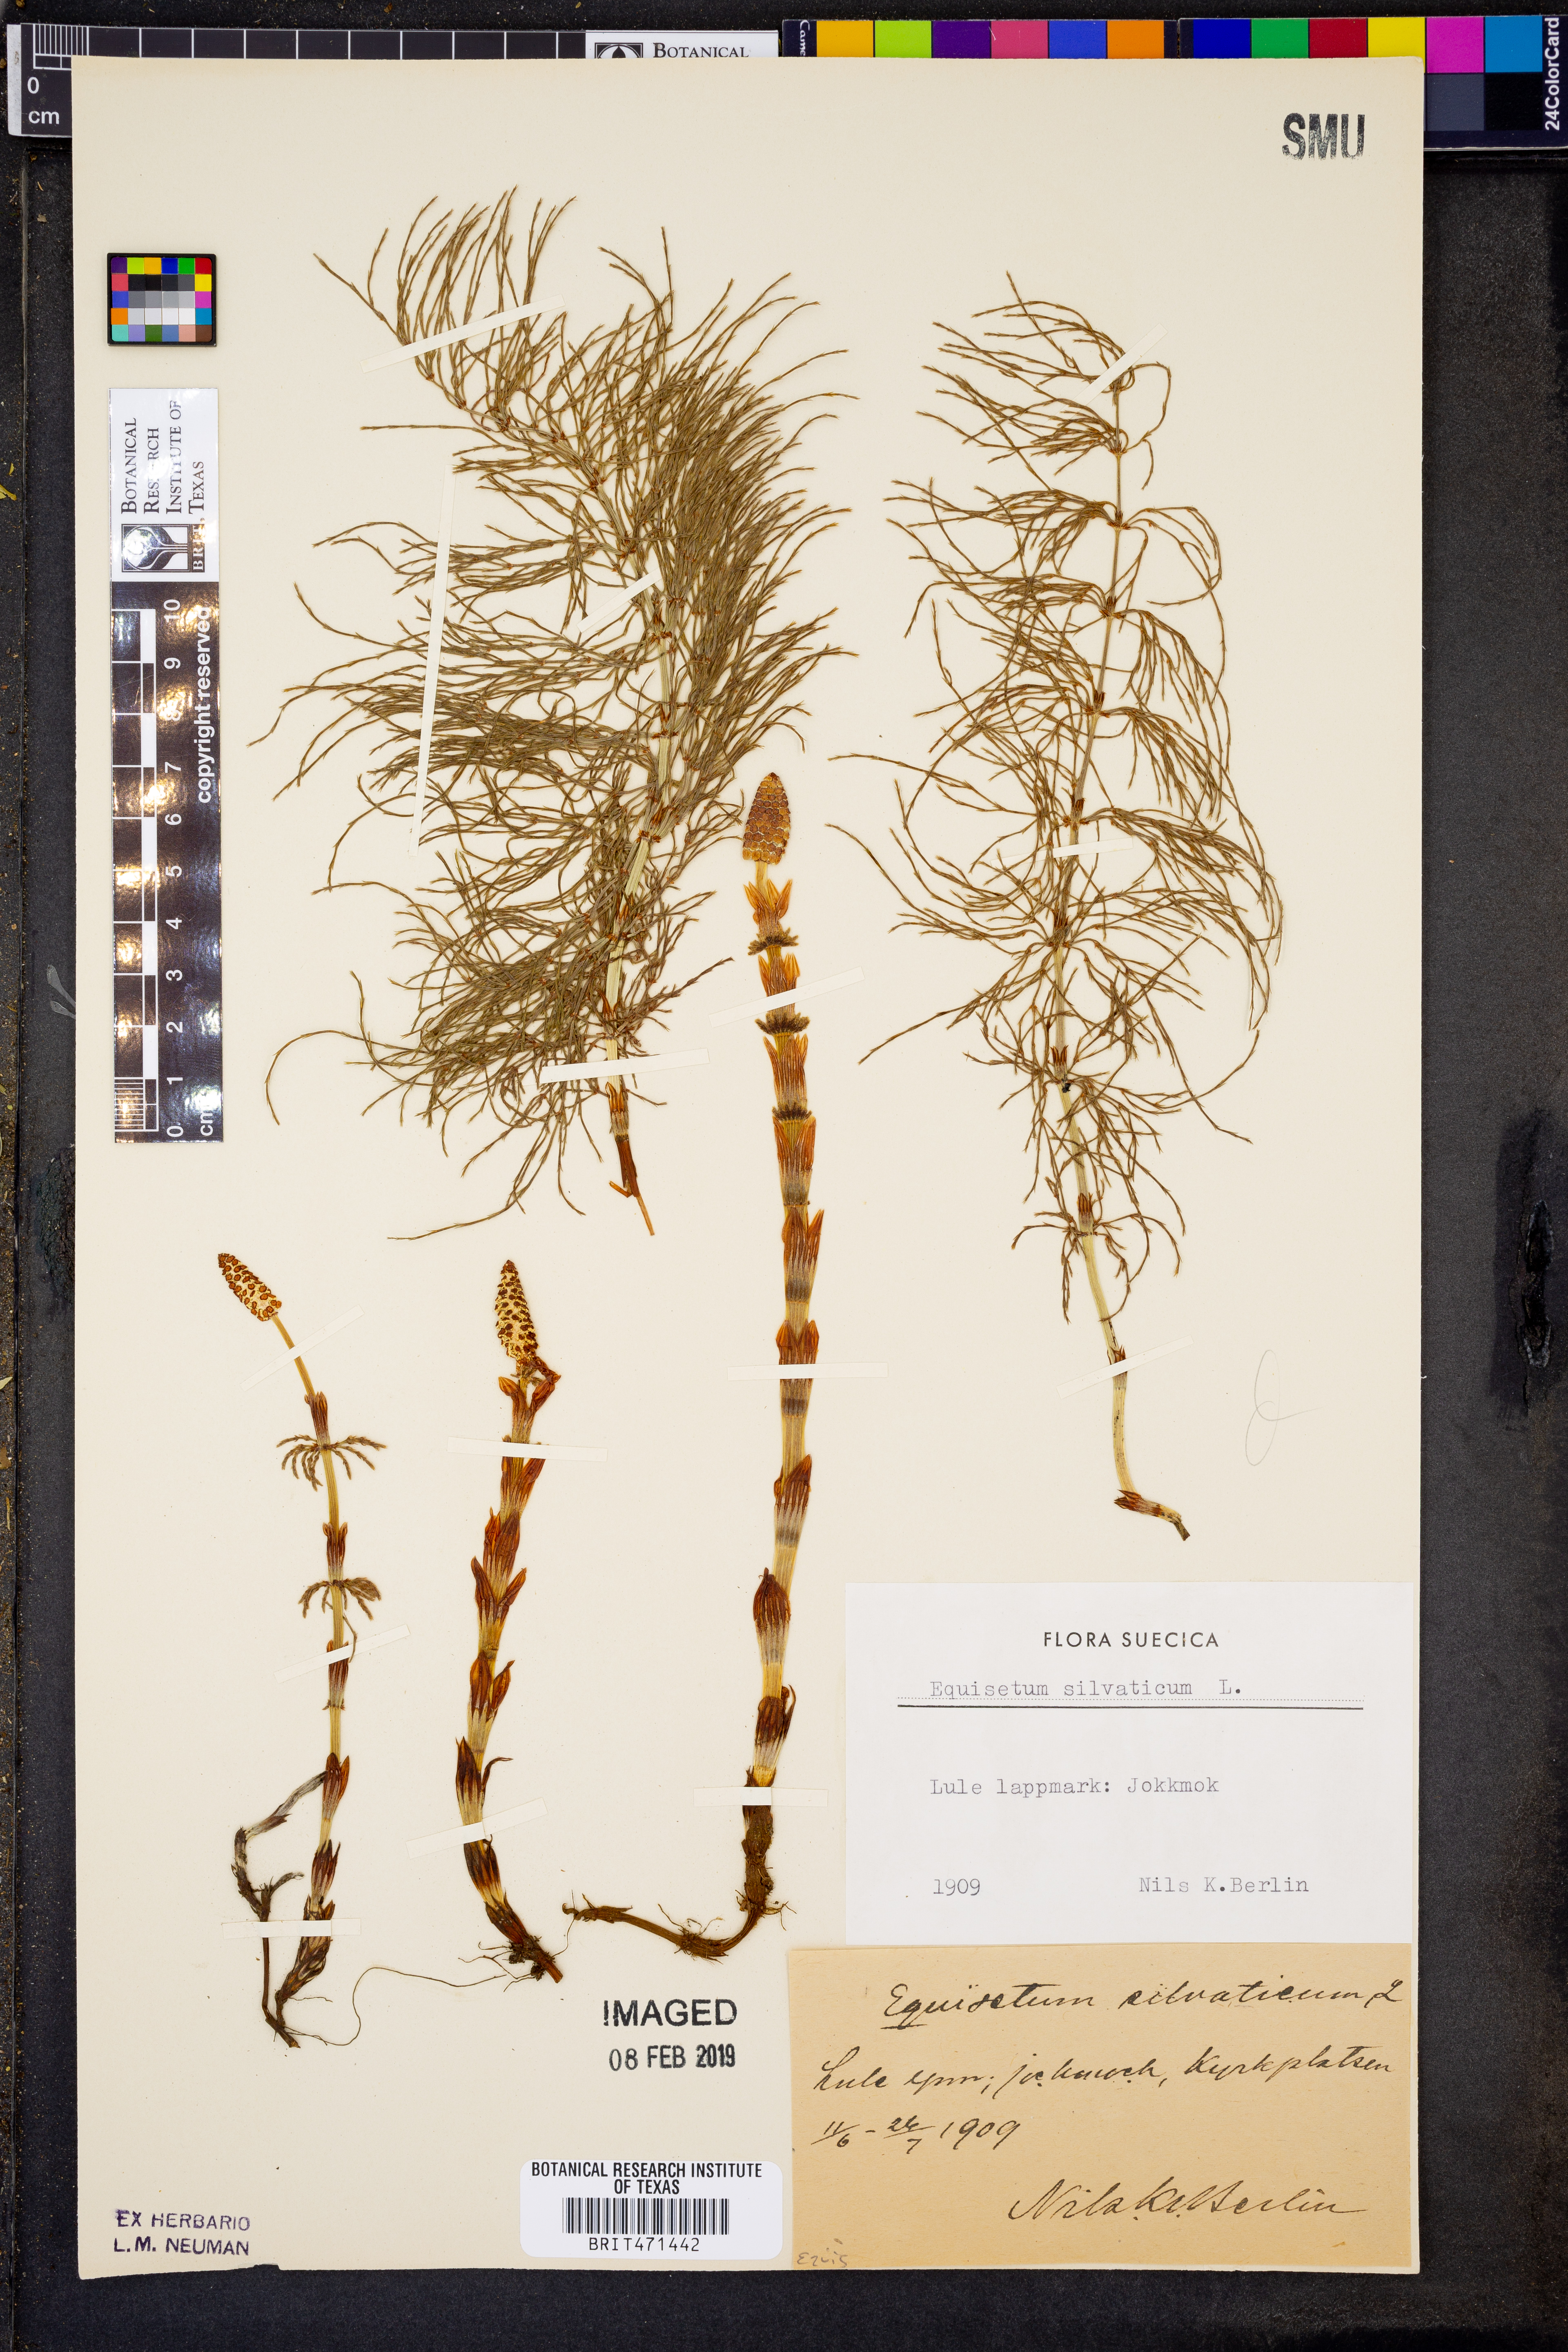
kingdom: Plantae
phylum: Tracheophyta
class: Polypodiopsida
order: Equisetales
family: Equisetaceae
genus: Equisetum
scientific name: Equisetum sylvaticum
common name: Wood horsetail
